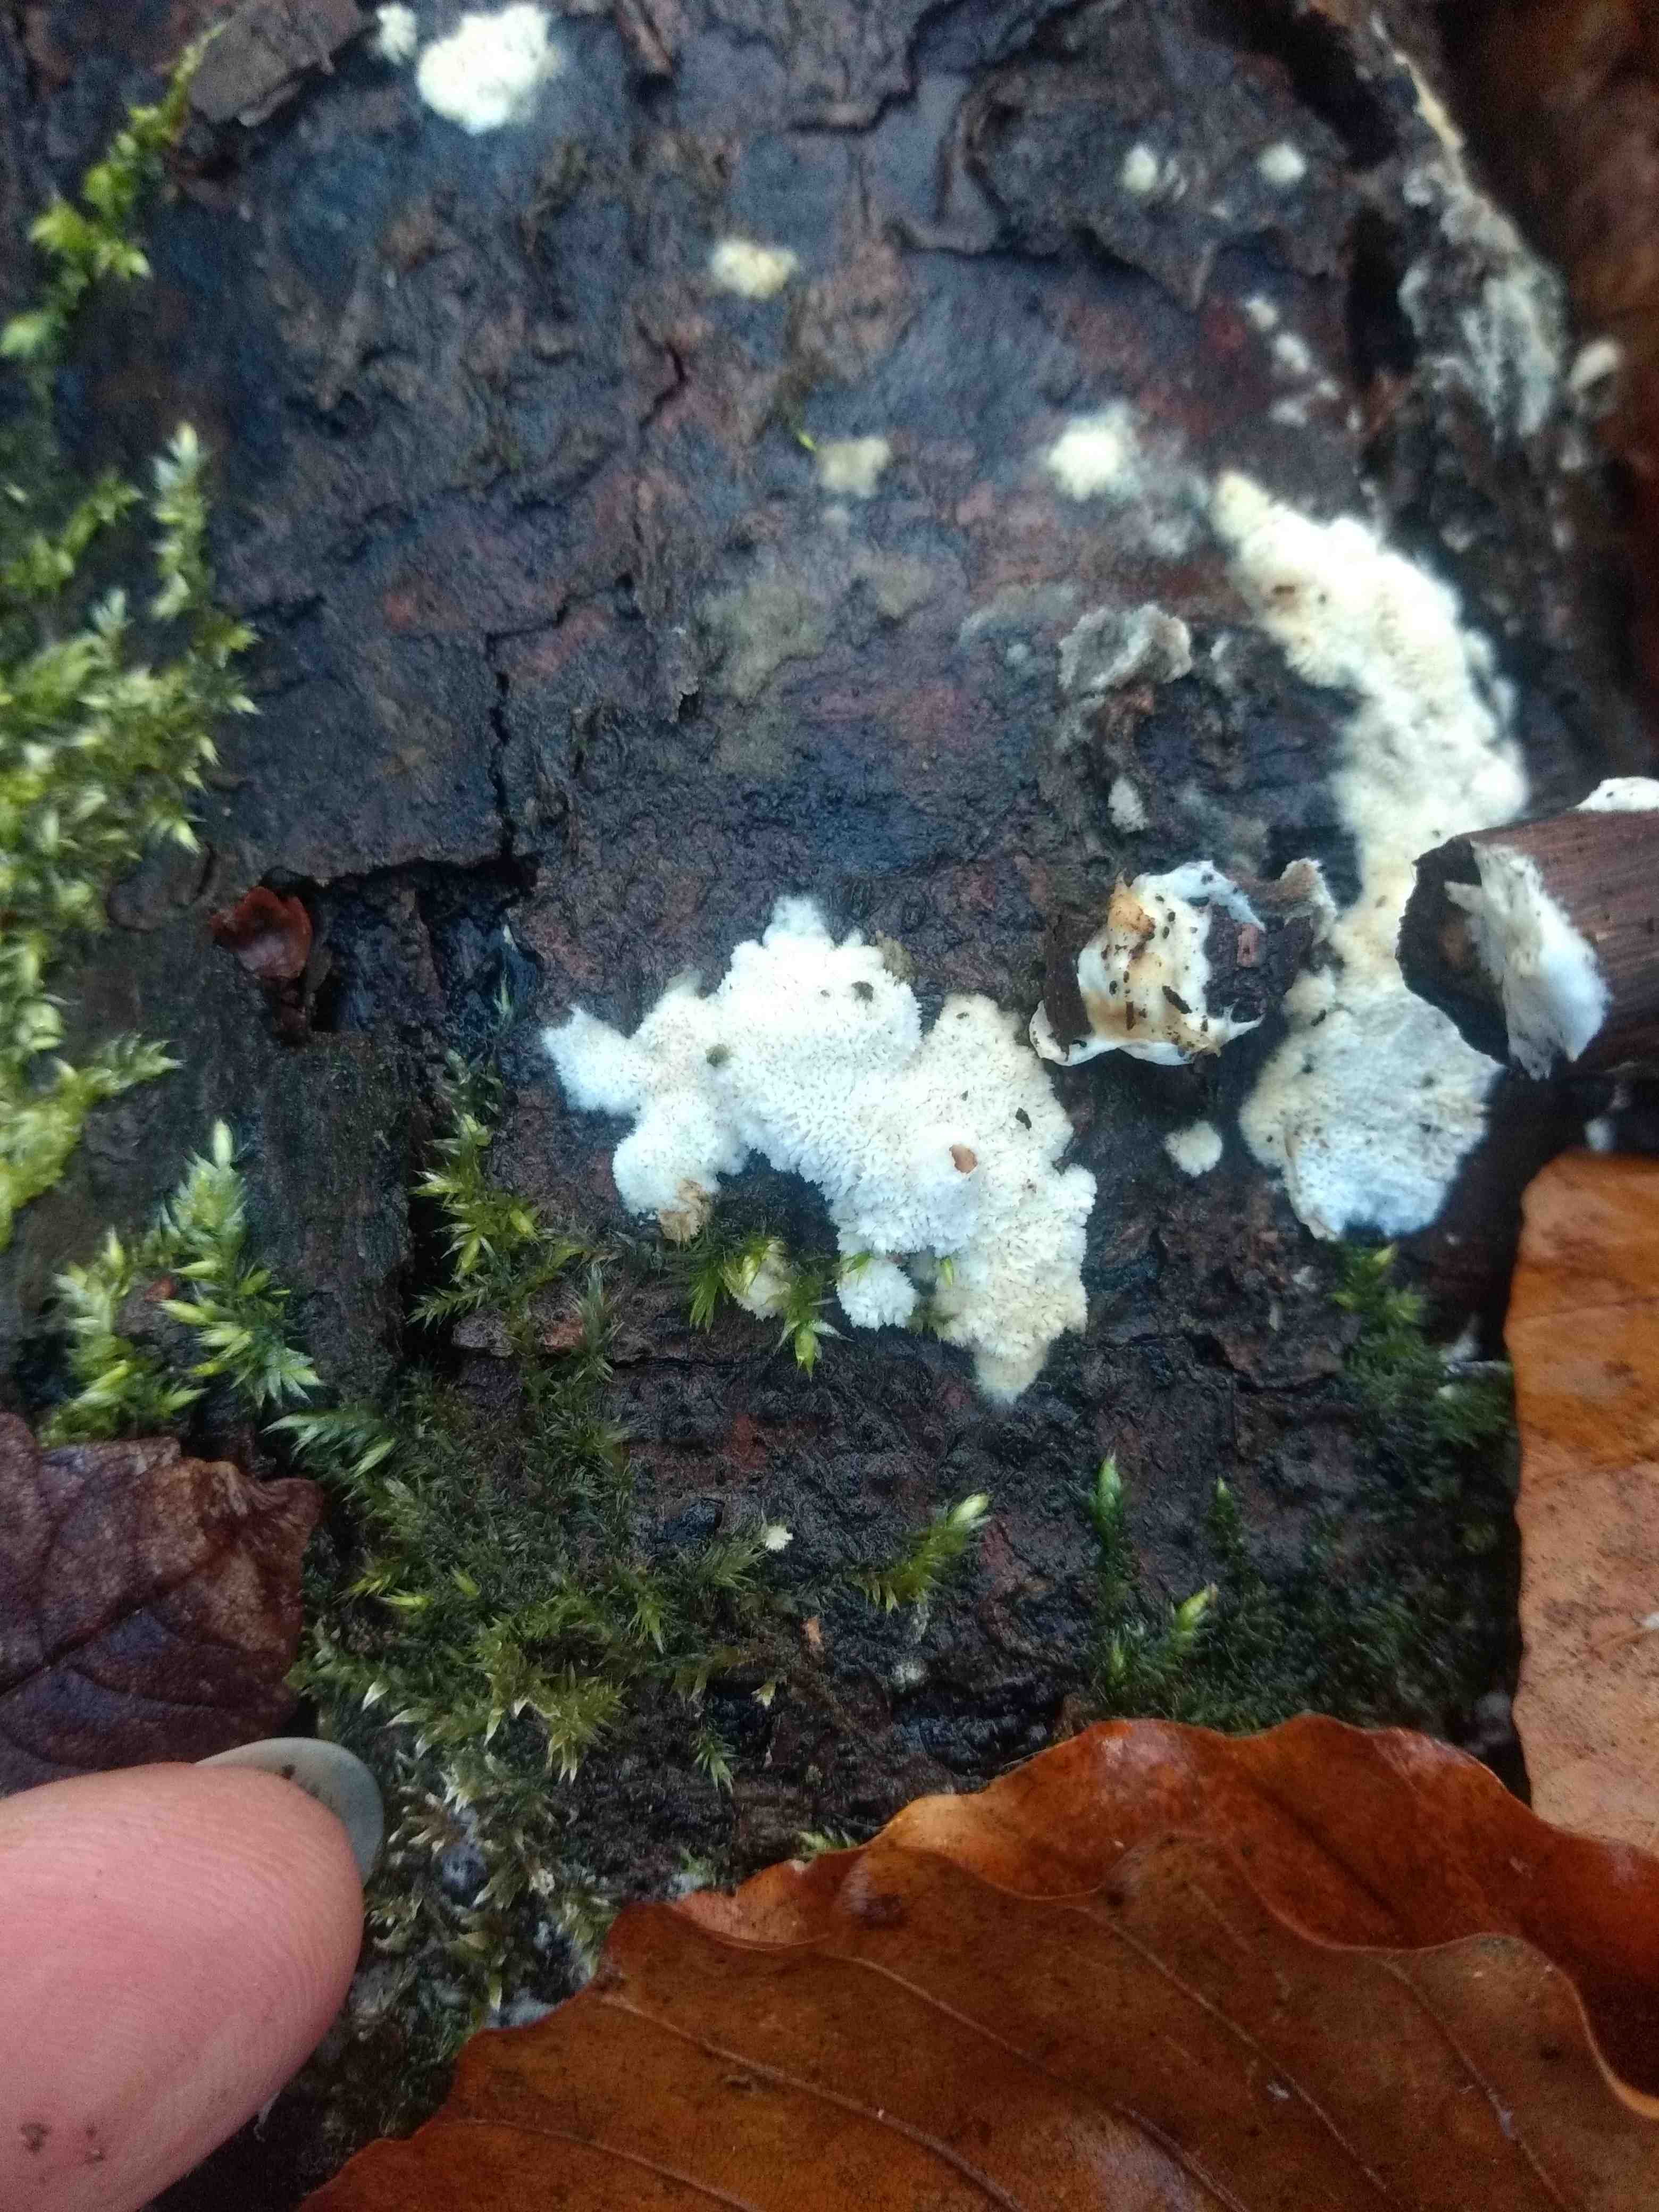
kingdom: Fungi
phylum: Basidiomycota
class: Agaricomycetes
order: Hymenochaetales
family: Schizoporaceae
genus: Xylodon
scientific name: Xylodon
